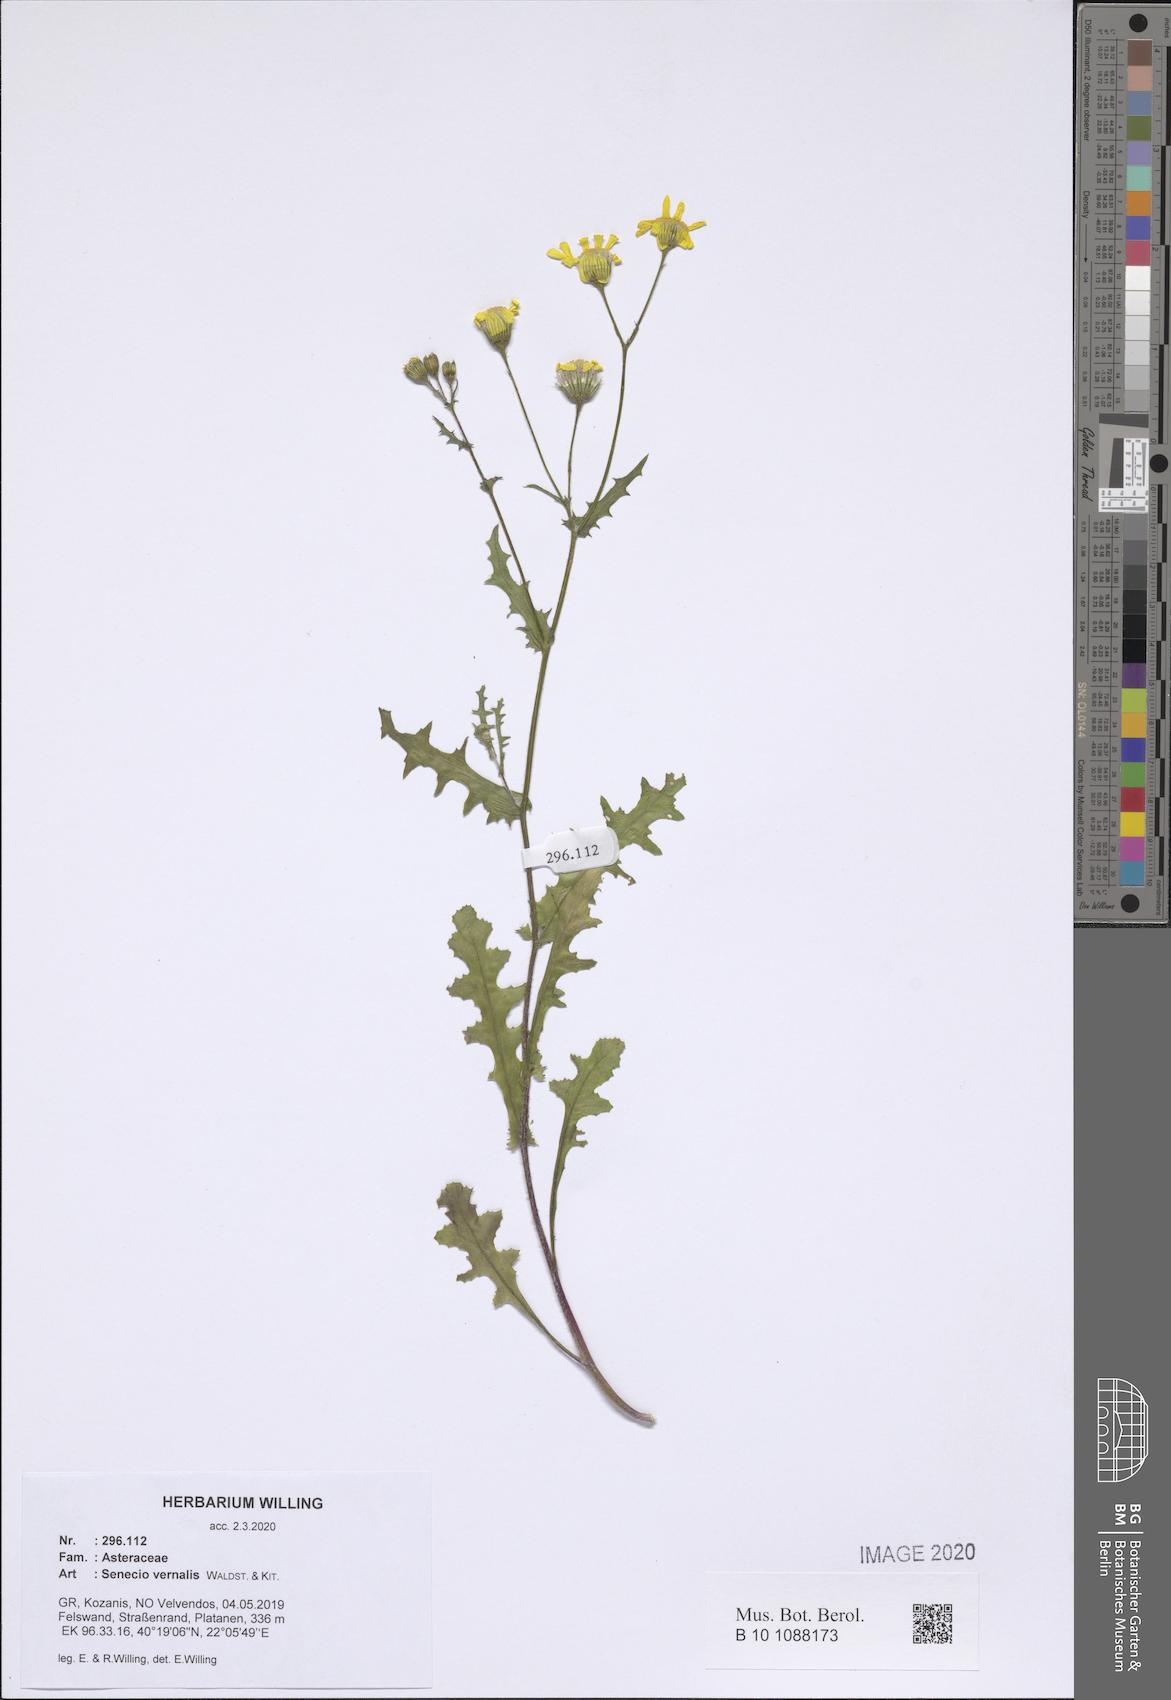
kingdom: Plantae
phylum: Tracheophyta
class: Magnoliopsida
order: Asterales
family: Asteraceae
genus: Senecio
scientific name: Senecio vernalis
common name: Eastern groundsel
